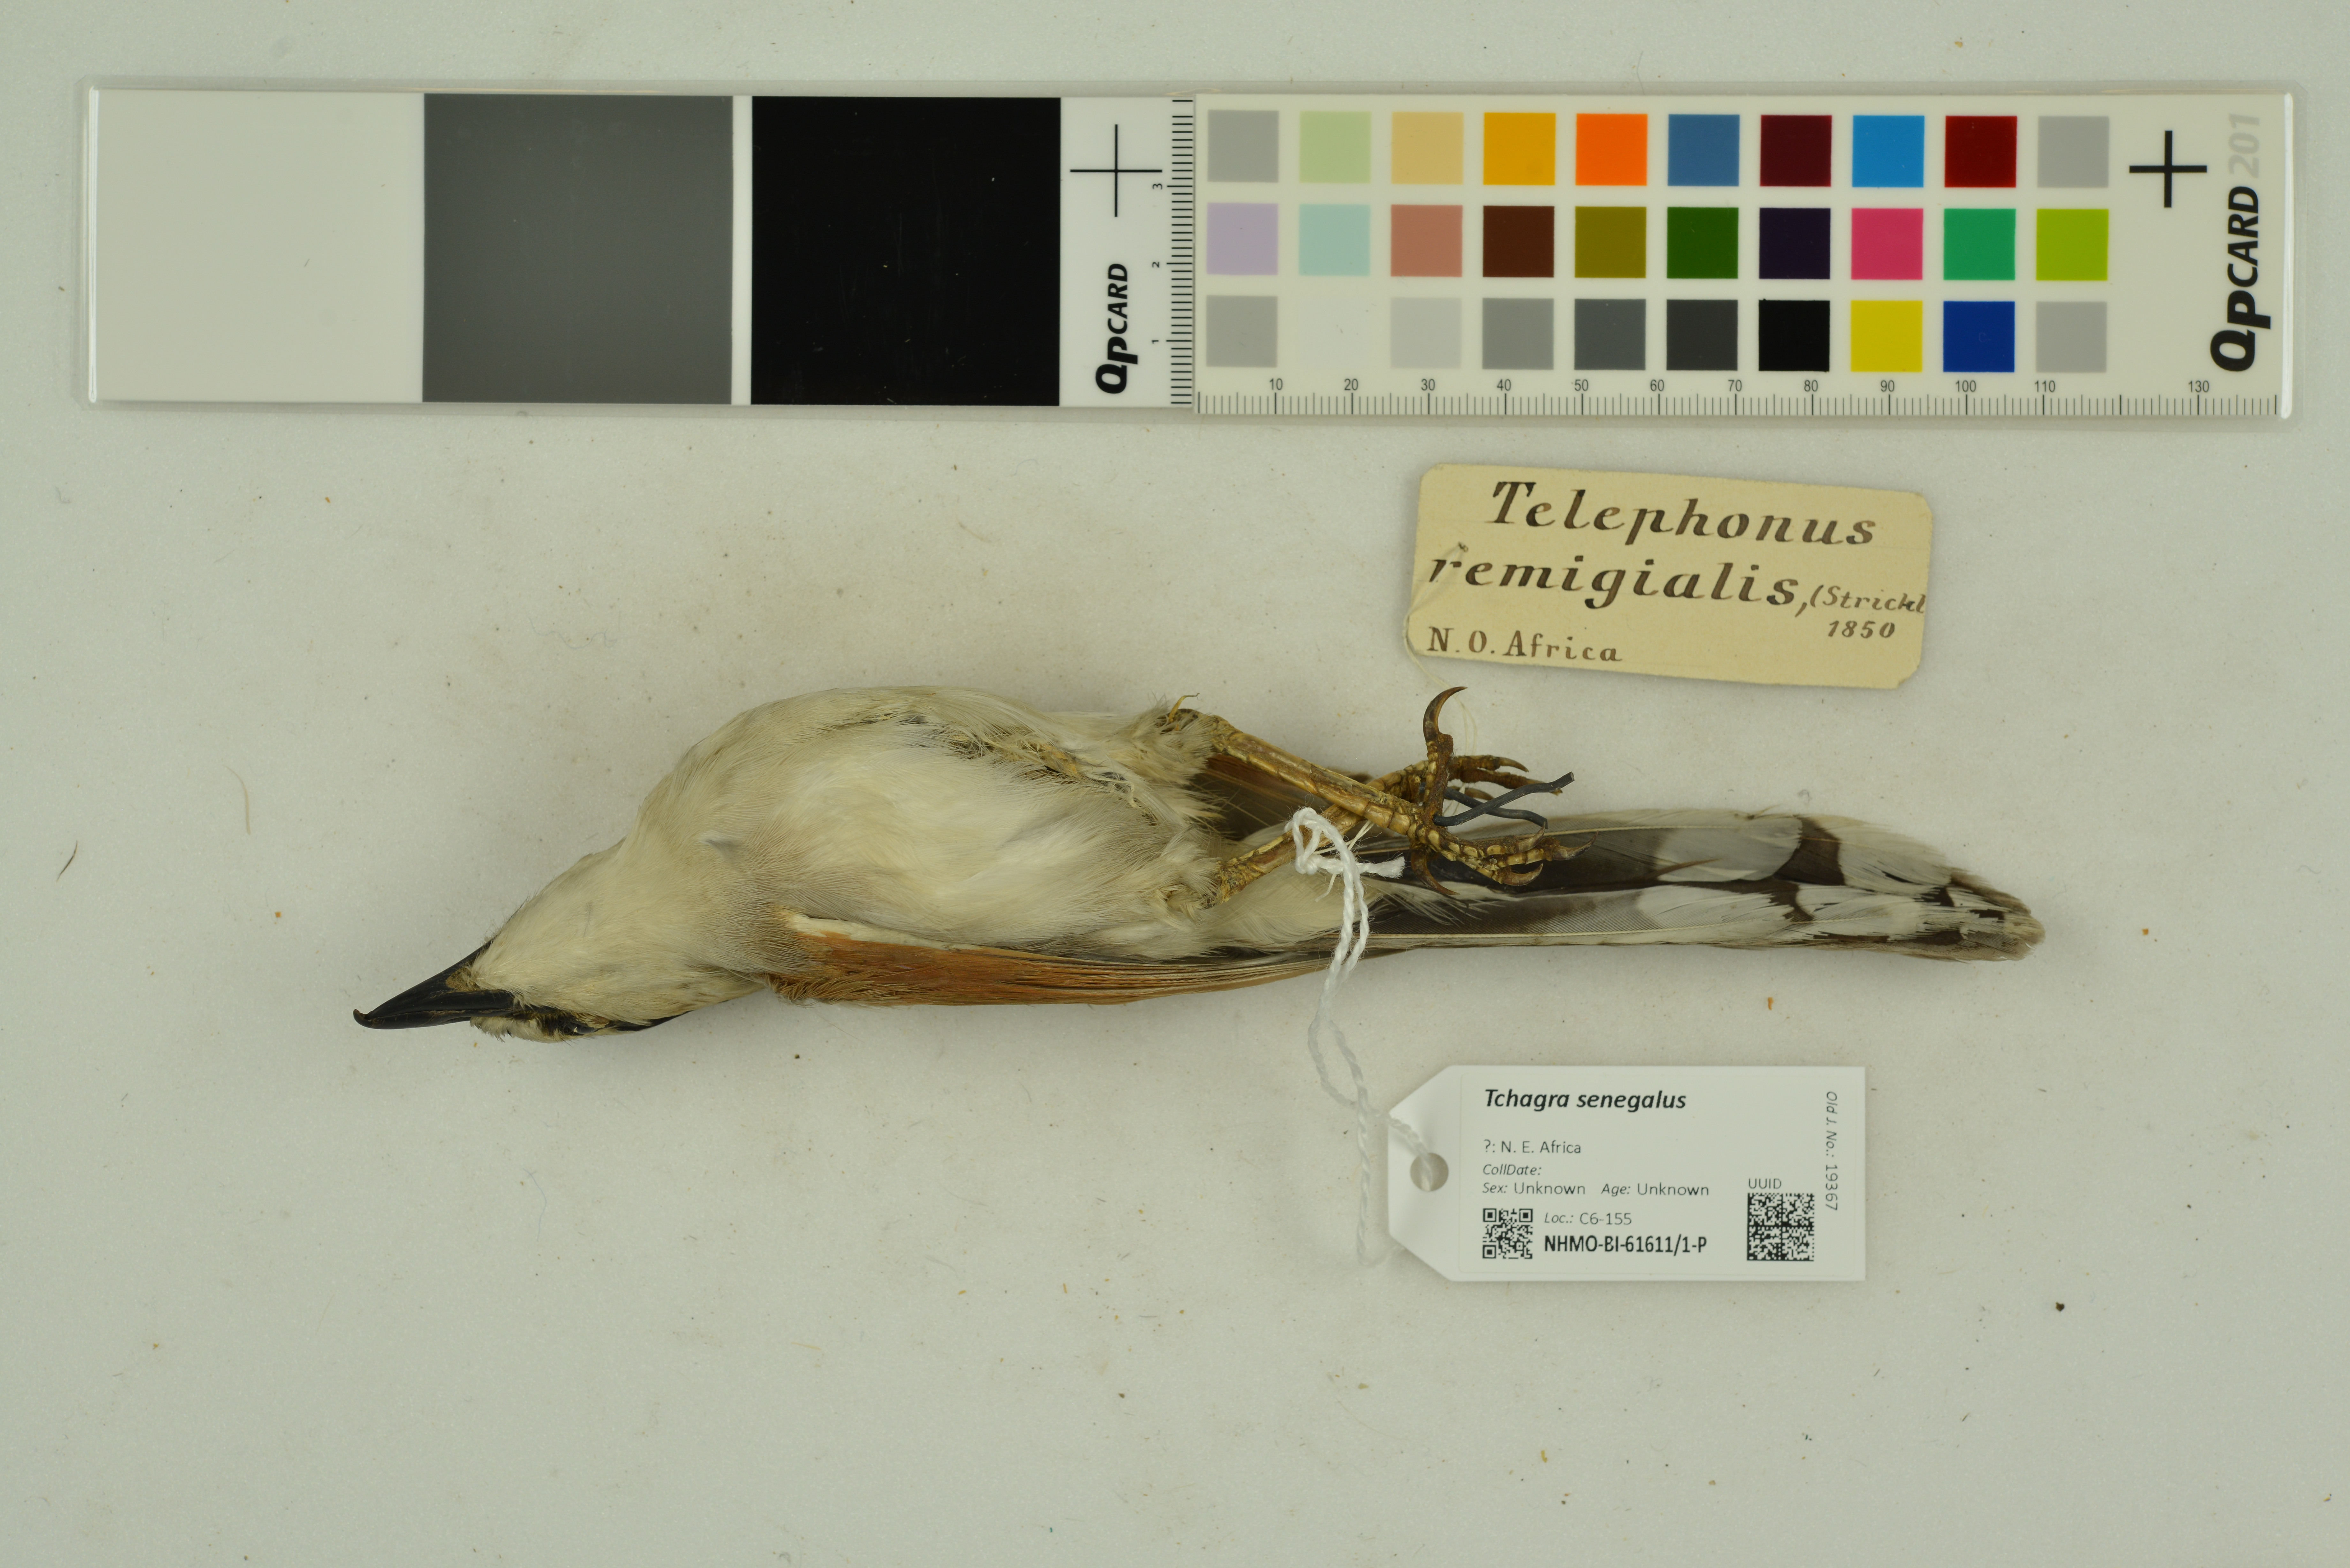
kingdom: Animalia
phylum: Chordata
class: Aves
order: Passeriformes
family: Malaconotidae
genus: Tchagra
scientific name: Tchagra senegalus
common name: Black-crowned tchagra
